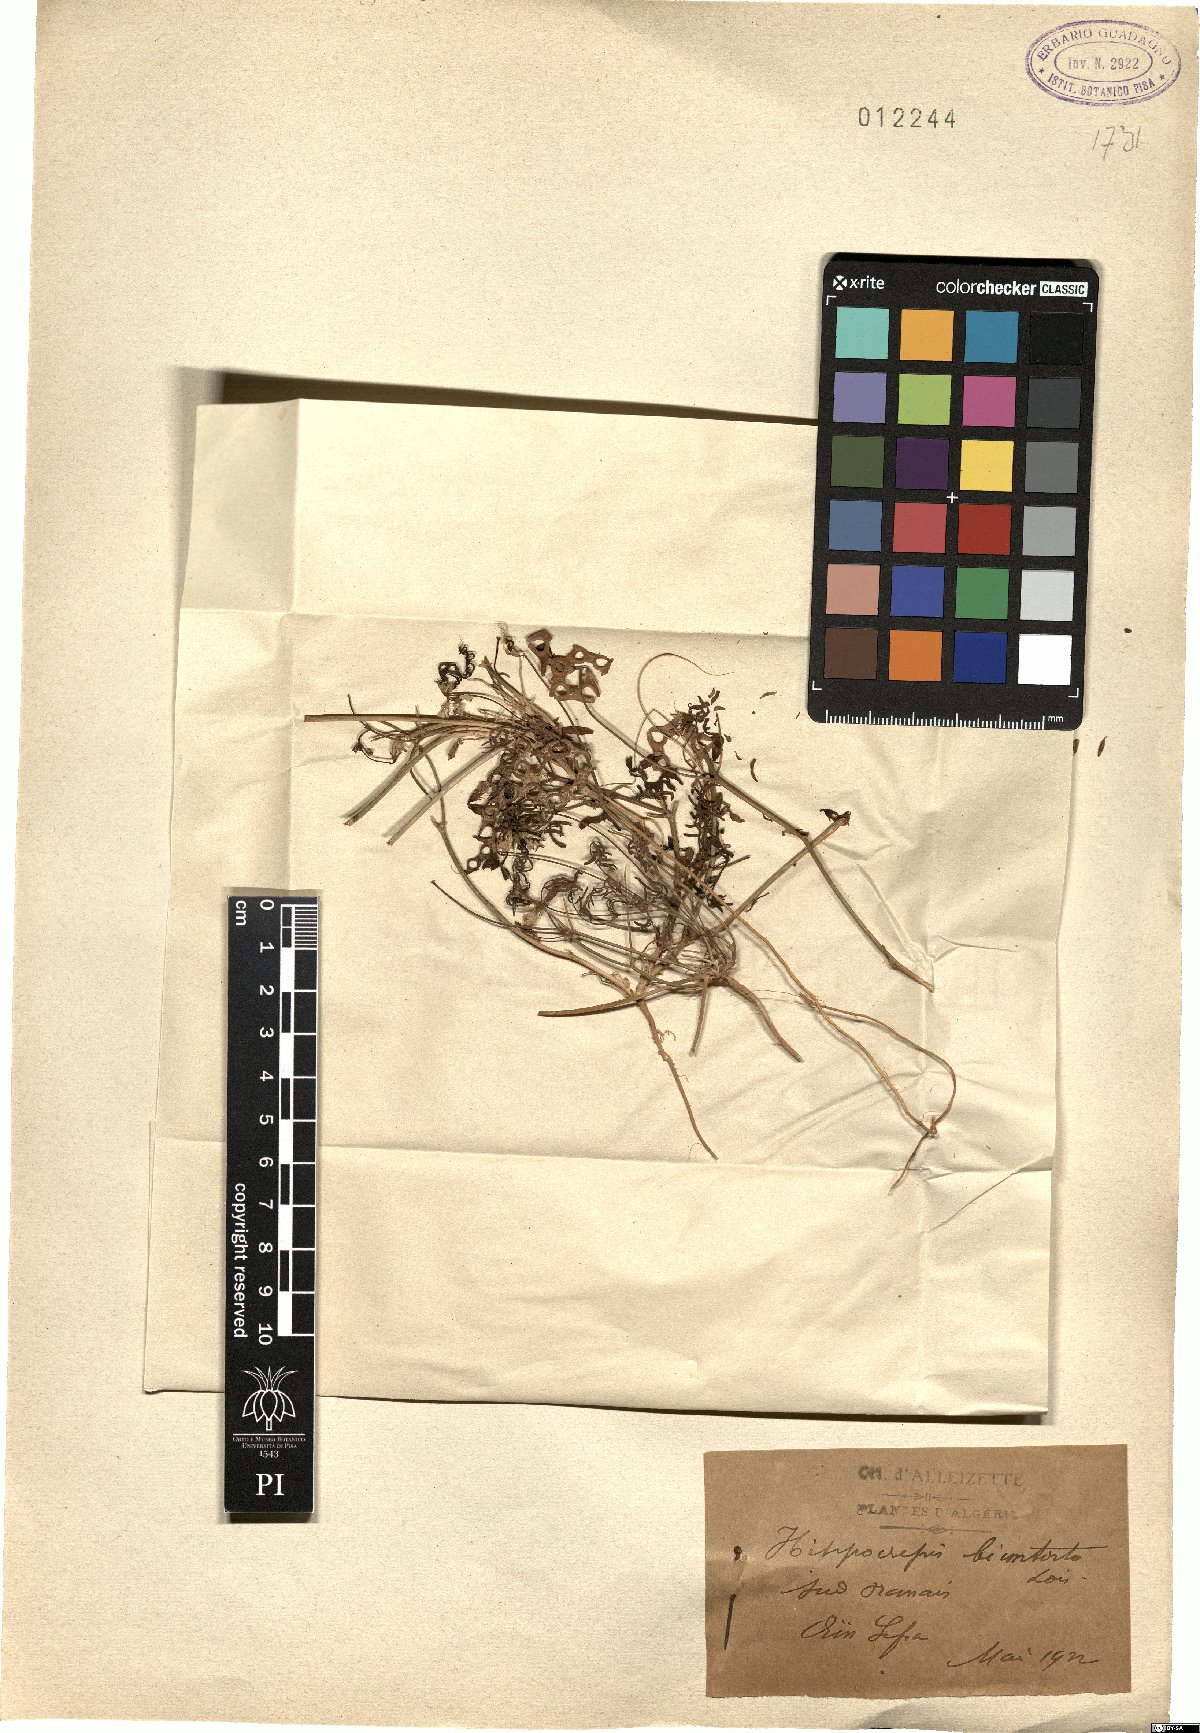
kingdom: Plantae
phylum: Tracheophyta
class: Magnoliopsida
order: Fabales
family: Fabaceae
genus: Hippocrepis
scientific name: Hippocrepis areolata
